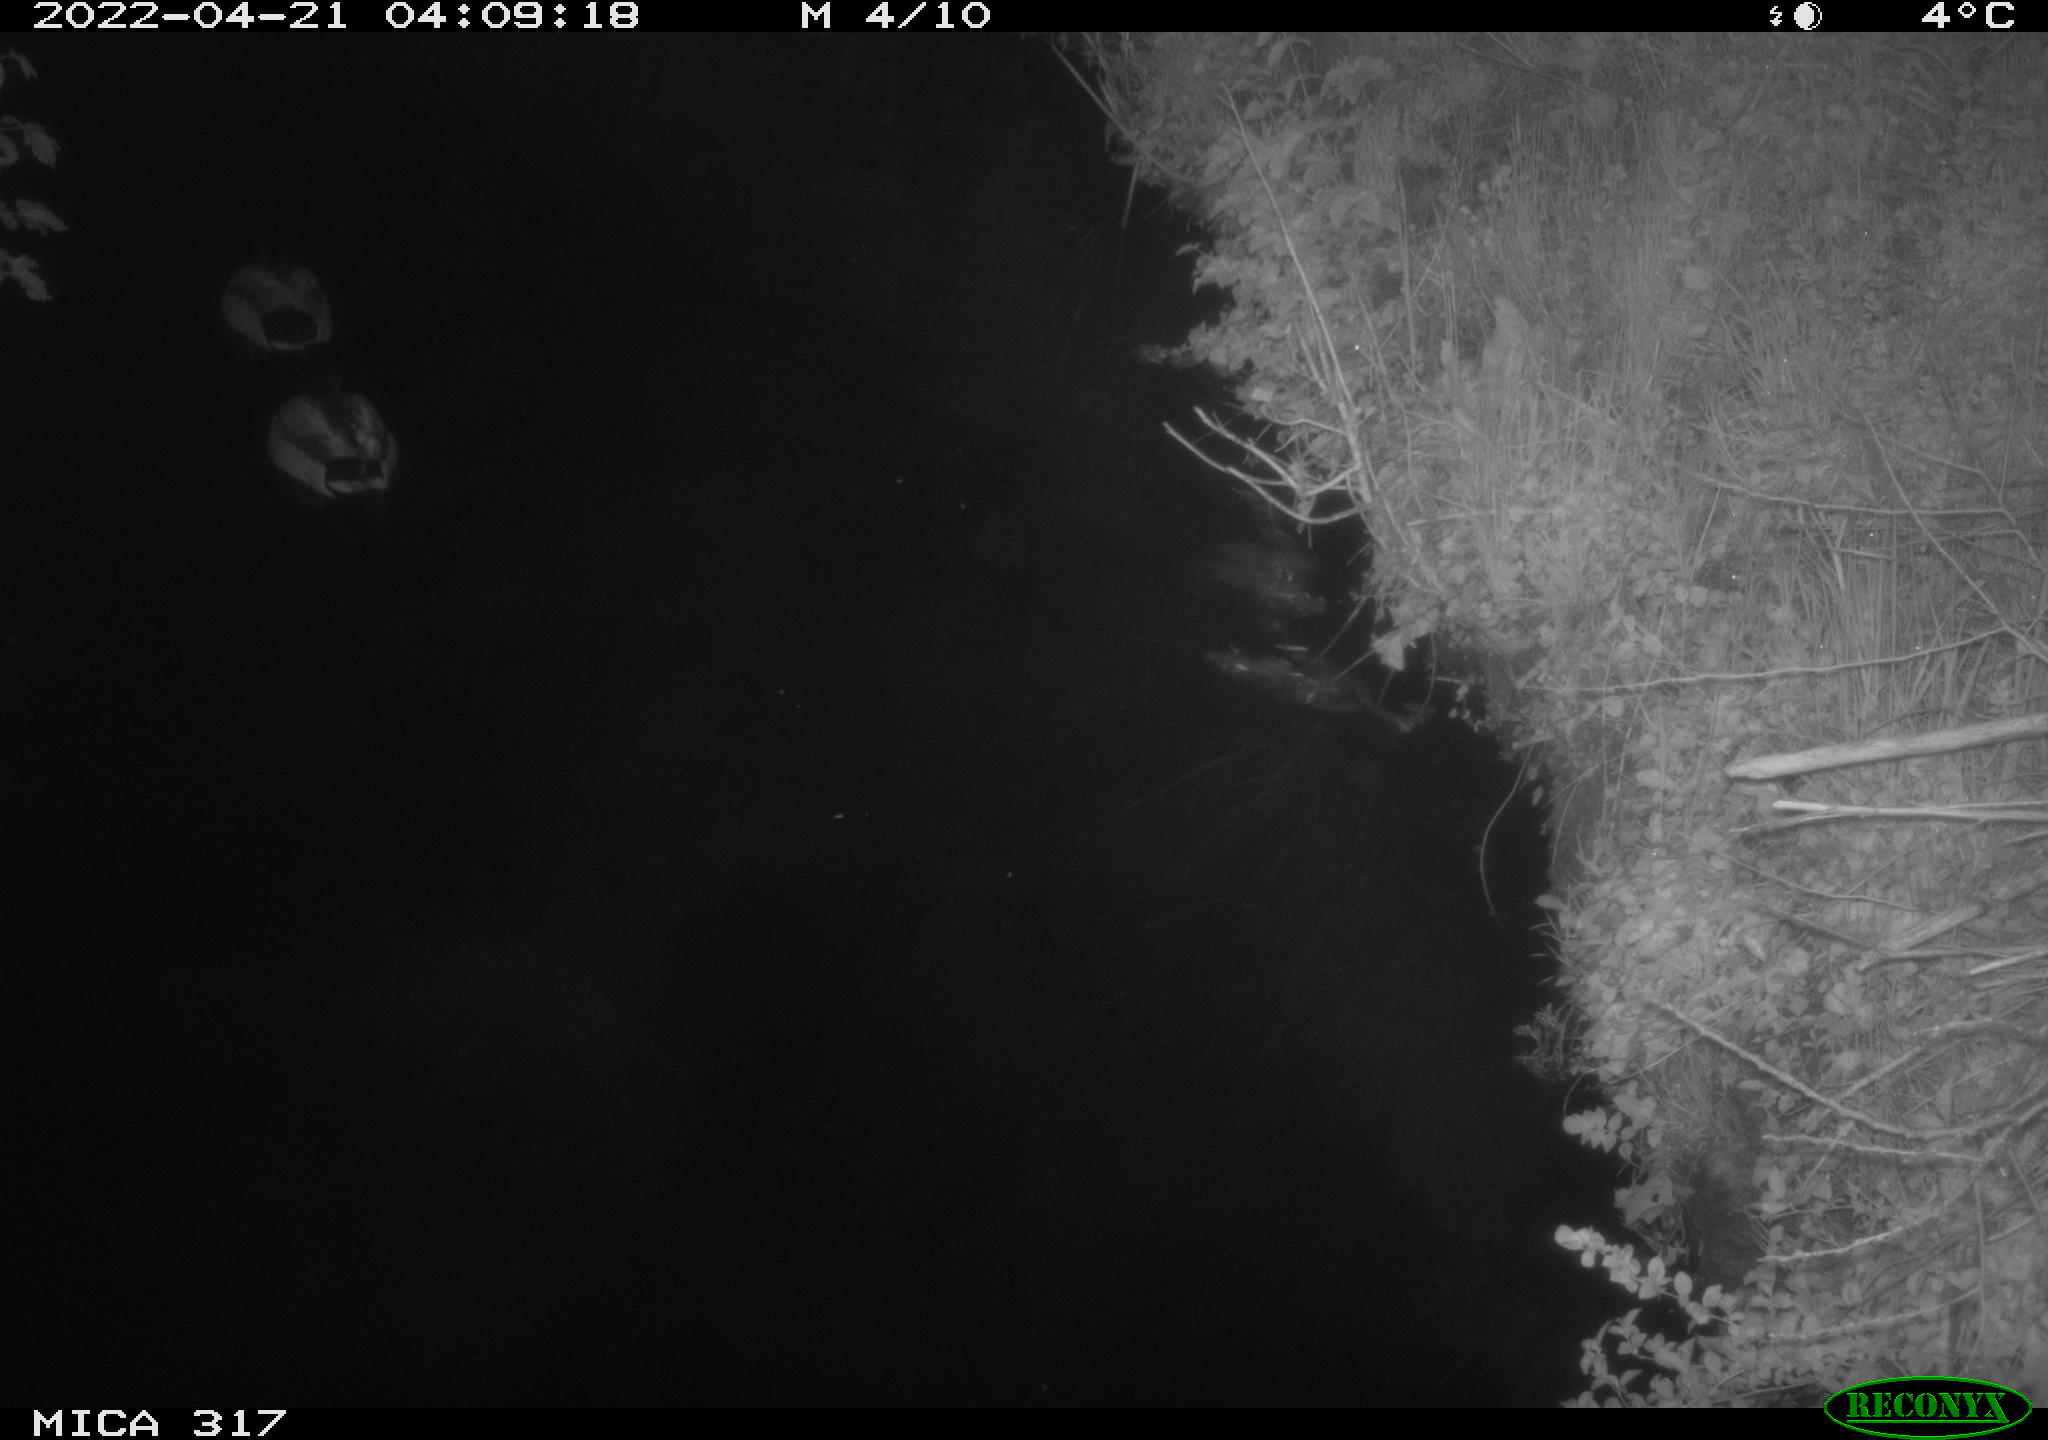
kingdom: Animalia
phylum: Chordata
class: Aves
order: Anseriformes
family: Anatidae
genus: Anas
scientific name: Anas platyrhynchos
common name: Mallard
